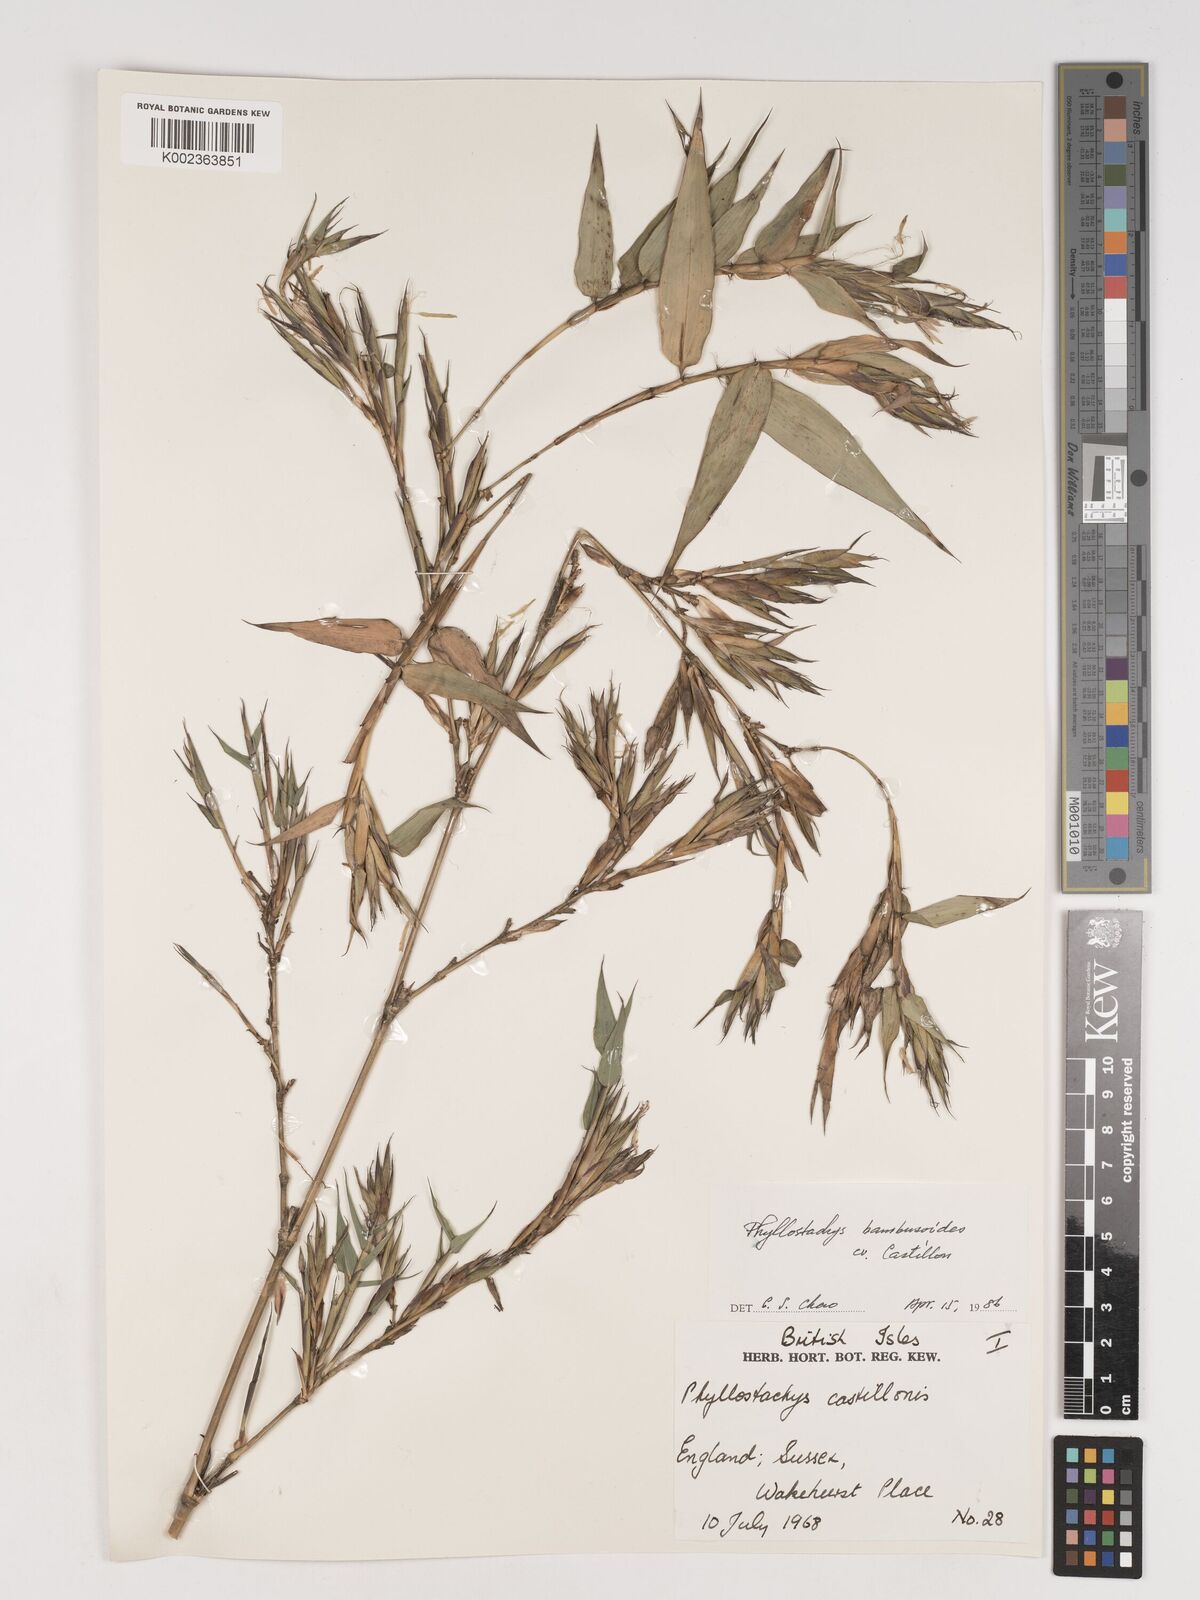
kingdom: Plantae
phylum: Tracheophyta
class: Liliopsida
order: Poales
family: Poaceae
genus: Phyllostachys
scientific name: Phyllostachys reticulata
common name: Bamboo
